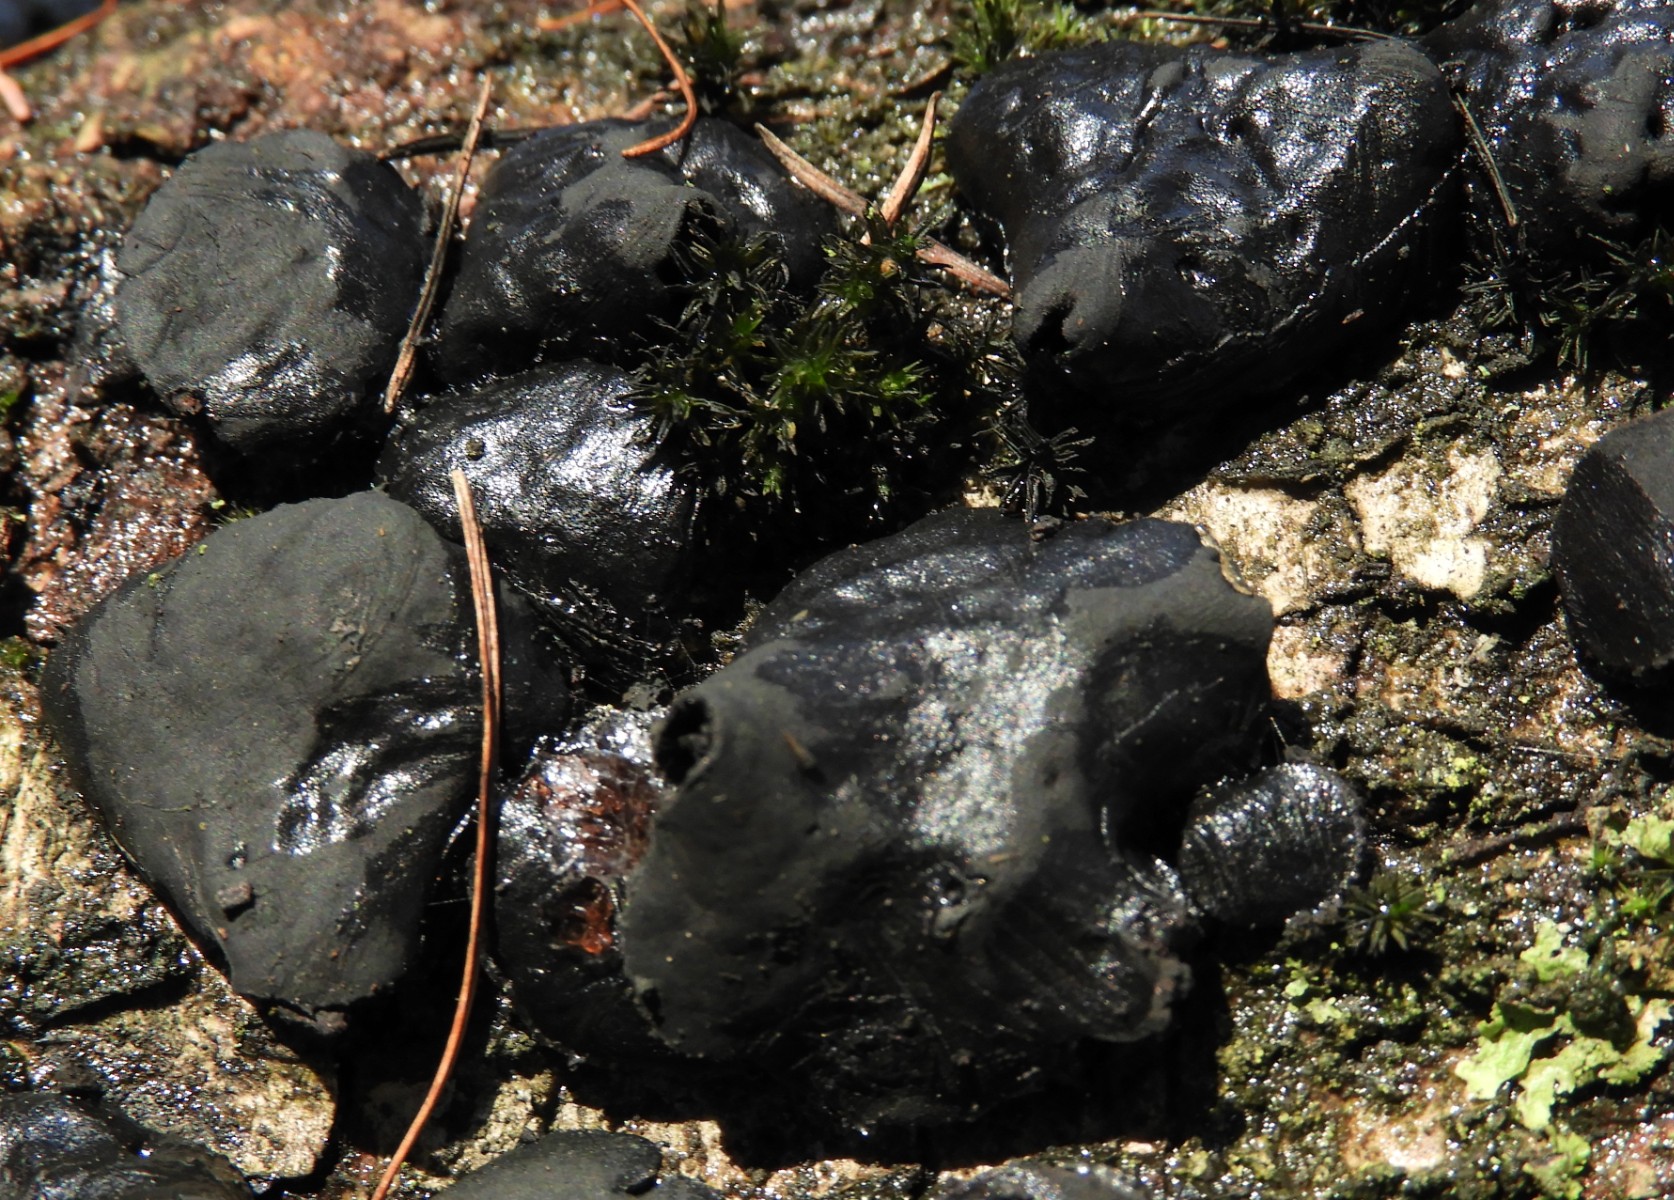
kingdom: Fungi
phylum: Ascomycota
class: Leotiomycetes
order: Phacidiales
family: Phacidiaceae
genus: Bulgaria
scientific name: Bulgaria inquinans
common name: afsmittende topsvamp
